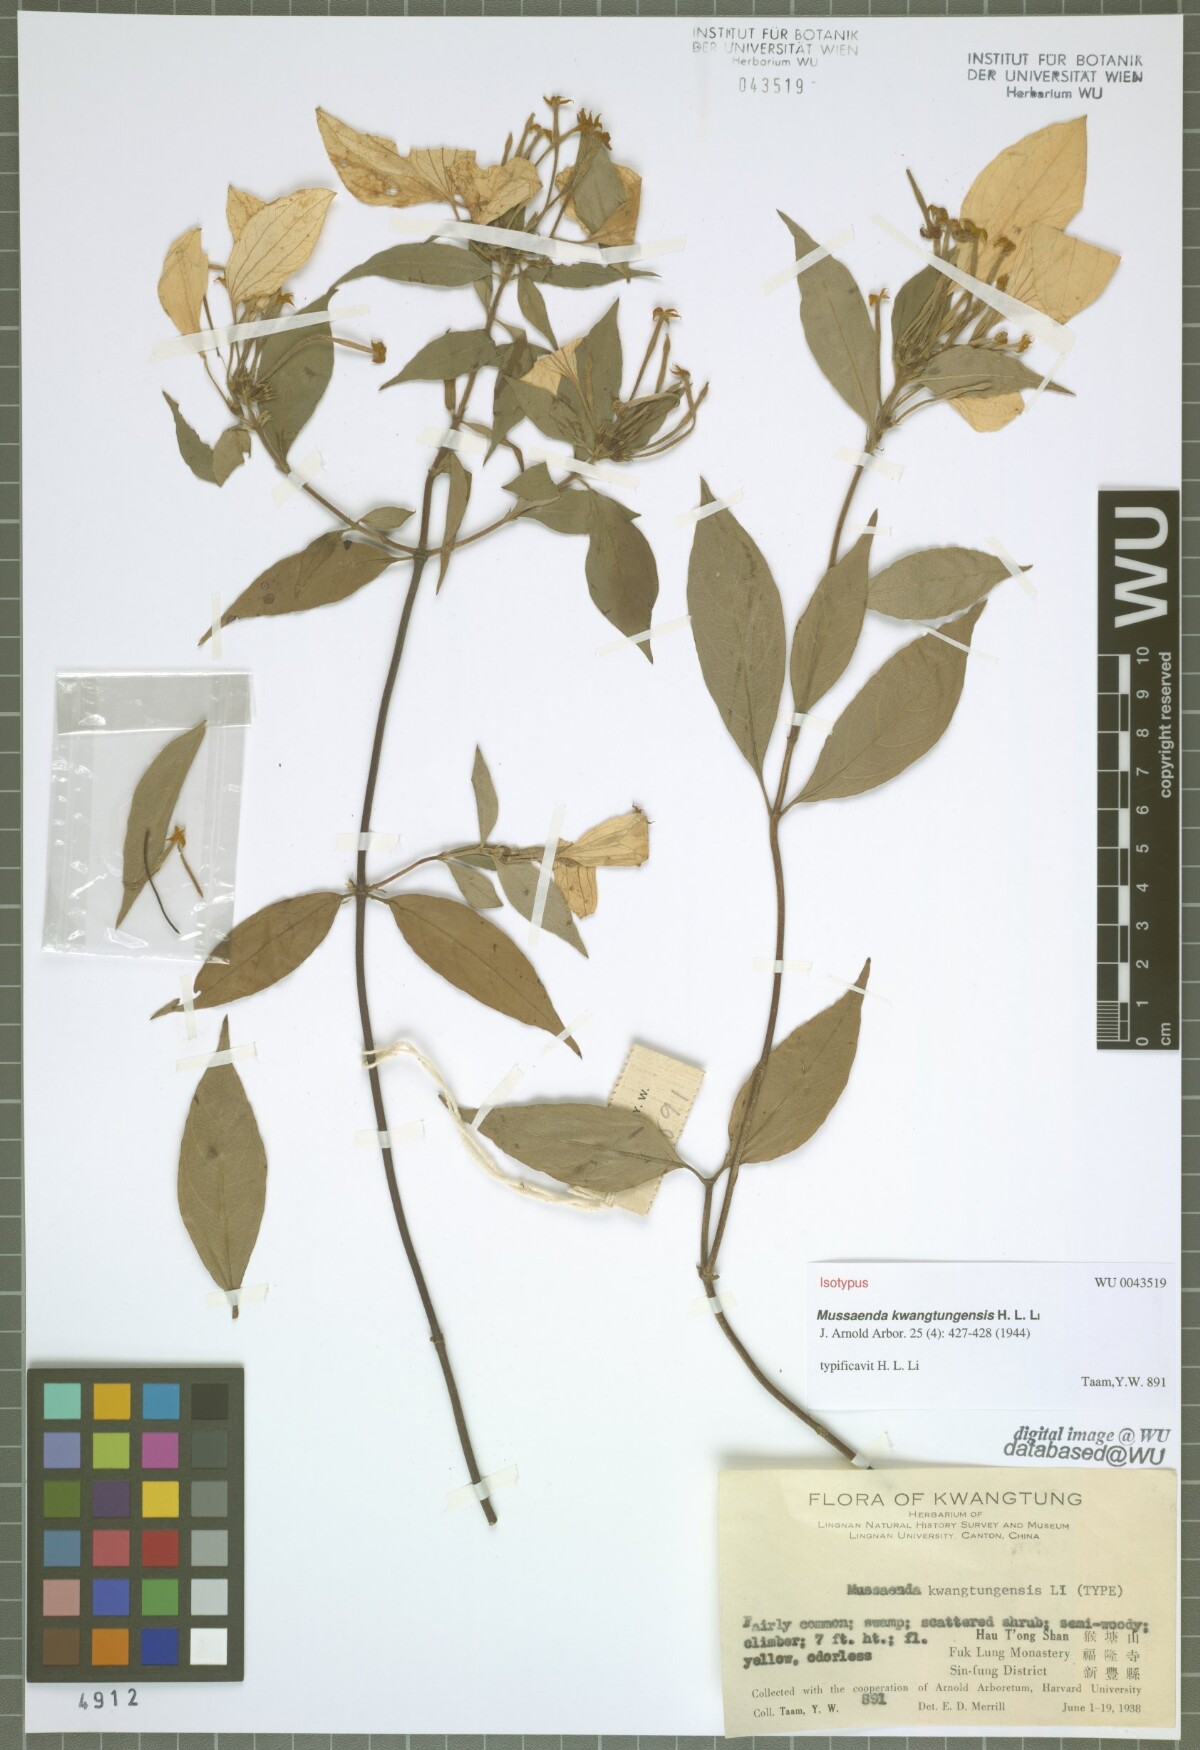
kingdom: Plantae
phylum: Tracheophyta
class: Magnoliopsida
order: Gentianales
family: Rubiaceae
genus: Mussaenda
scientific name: Mussaenda kwangtungensis
